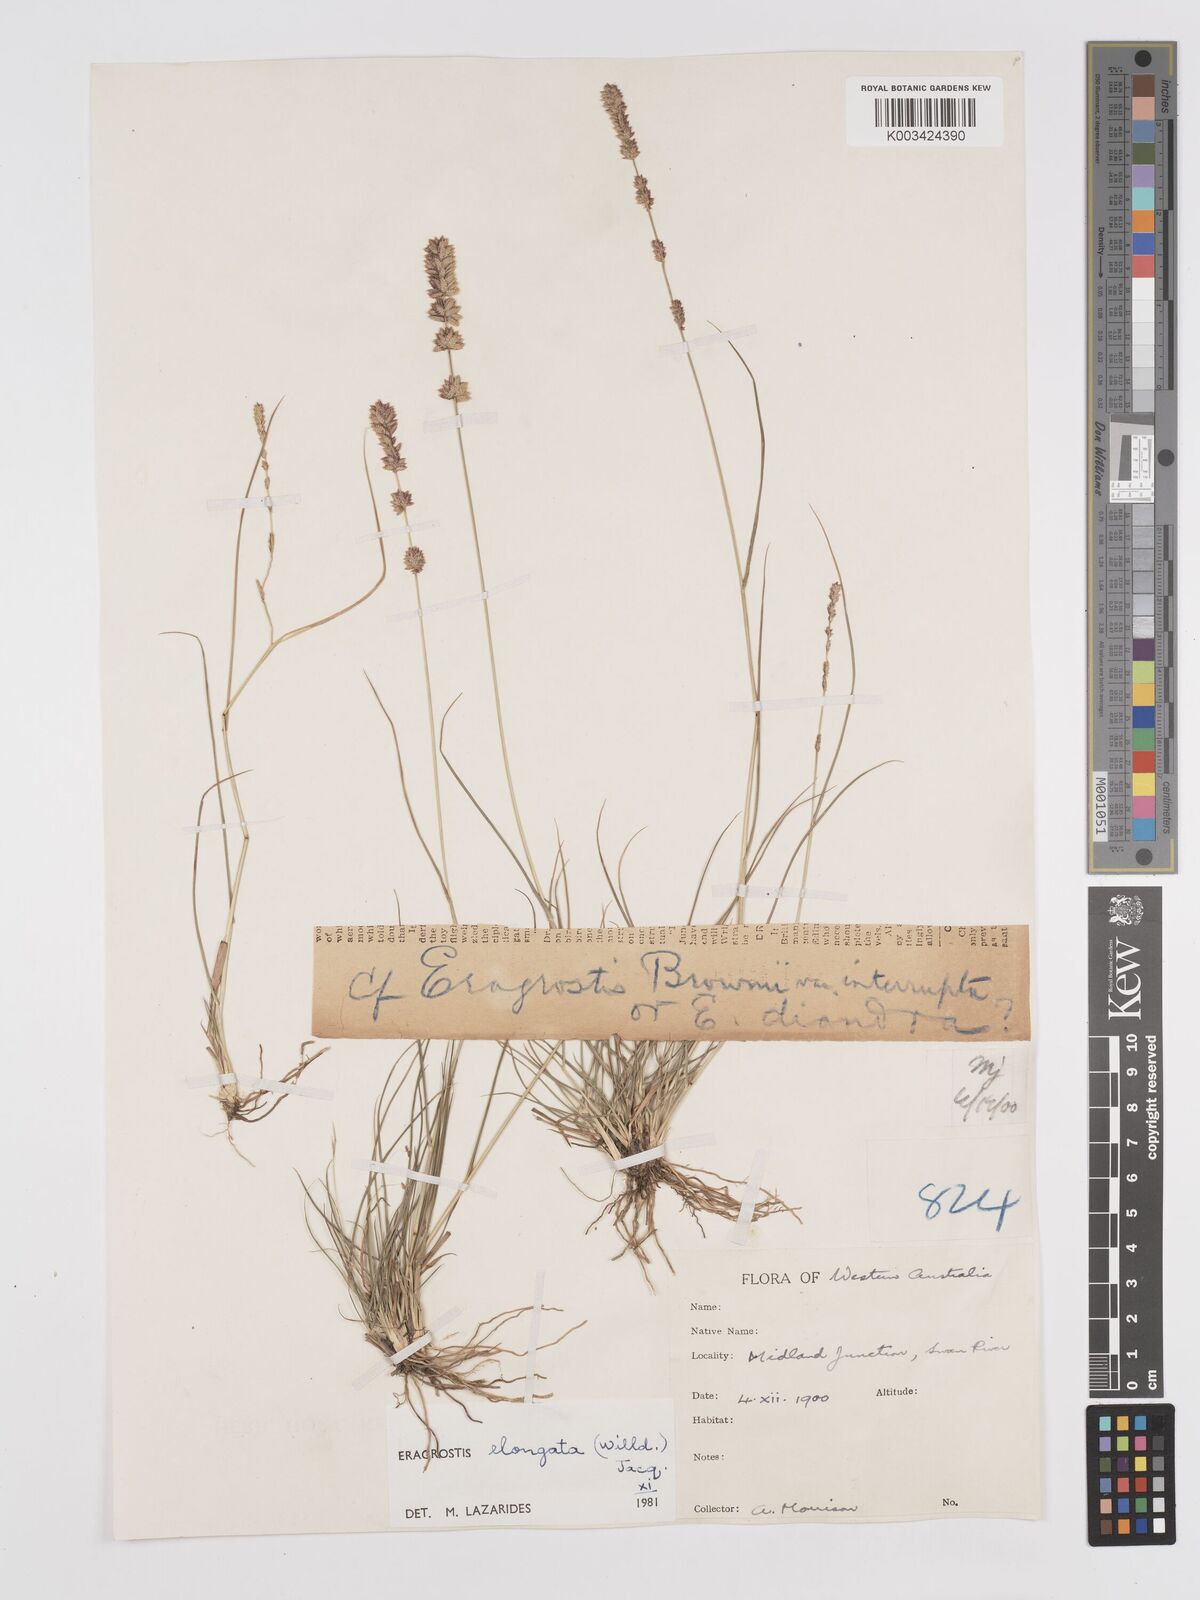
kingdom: Plantae
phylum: Tracheophyta
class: Liliopsida
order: Poales
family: Poaceae
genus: Eragrostis
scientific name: Eragrostis elongata
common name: Long lovegrass
